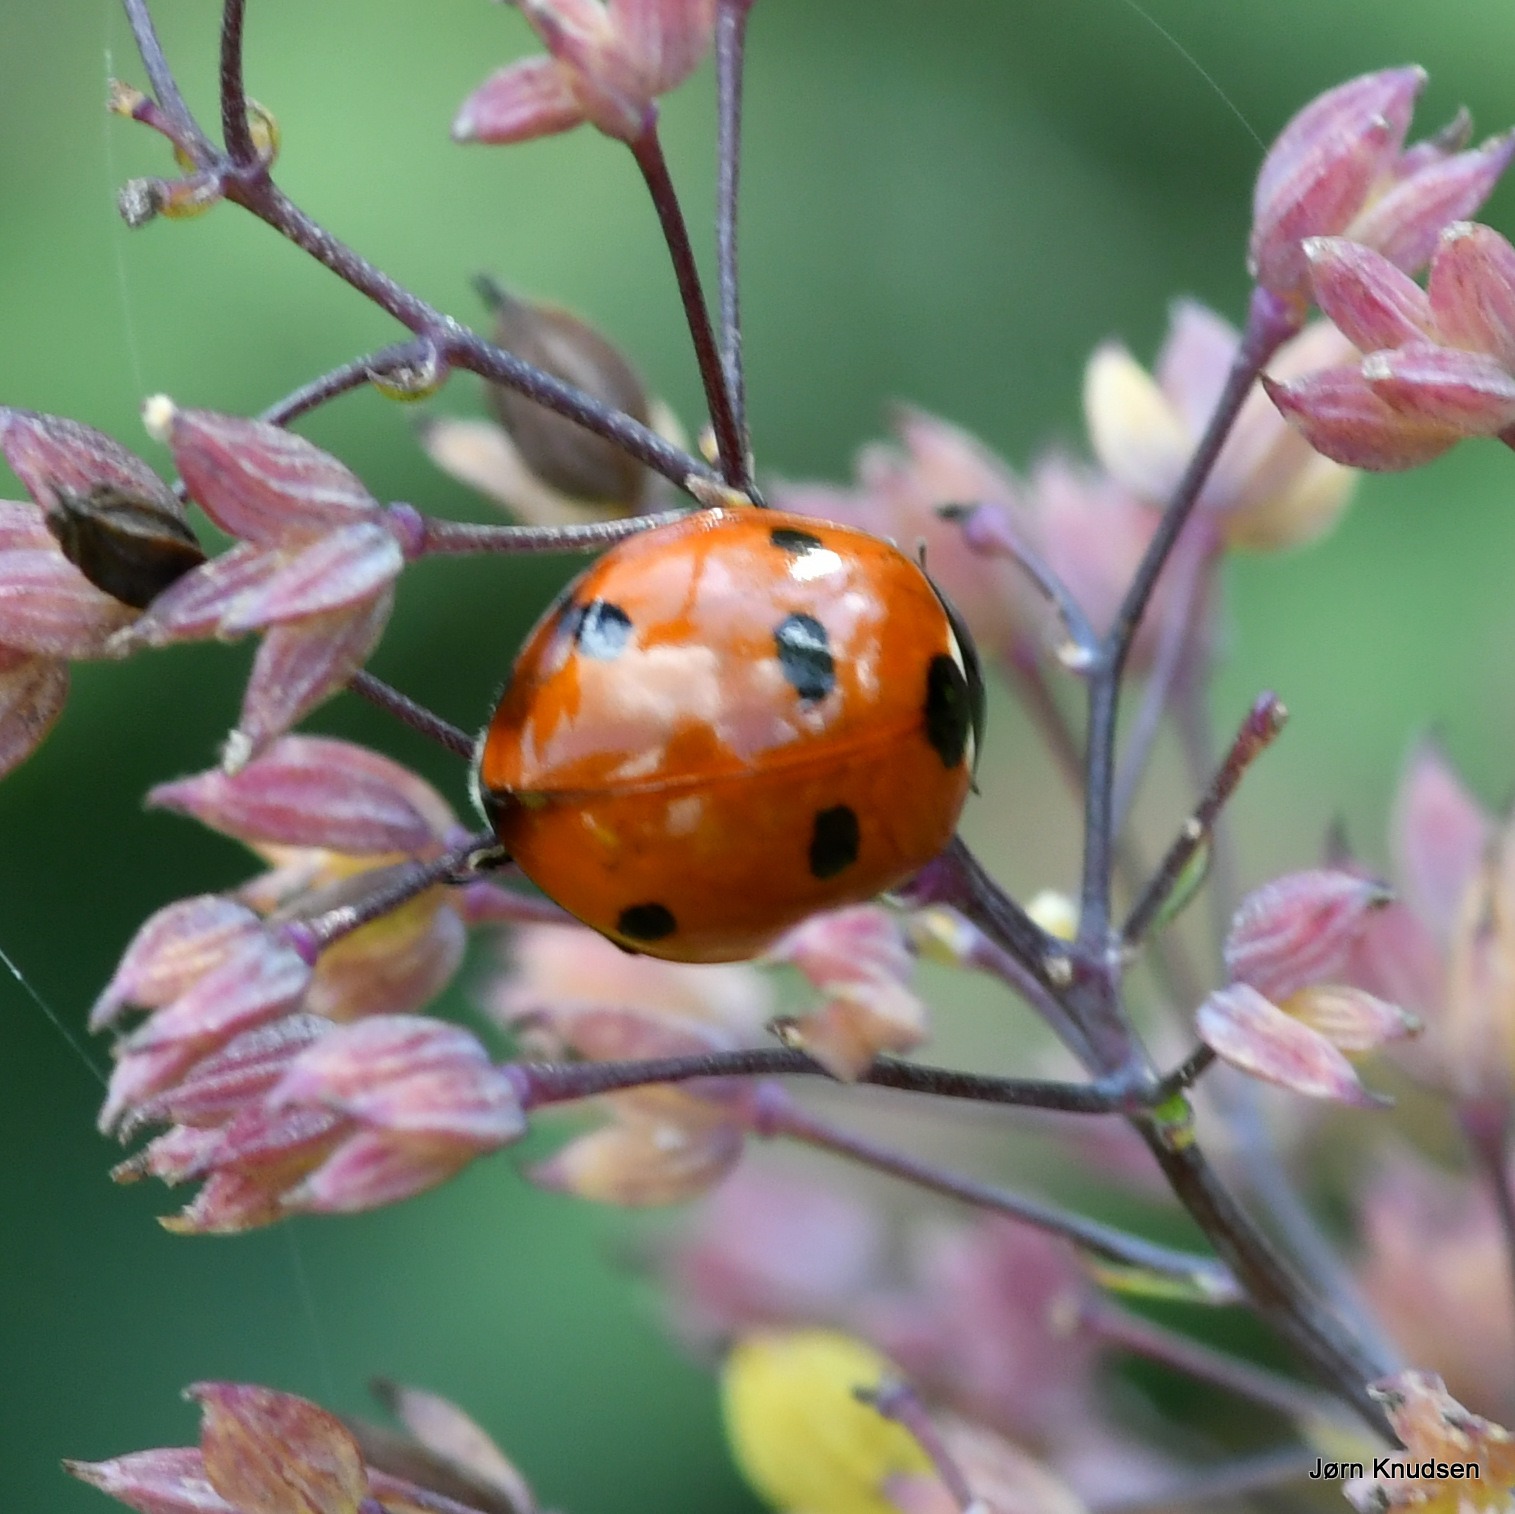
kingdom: Animalia
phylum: Arthropoda
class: Insecta
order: Coleoptera
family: Coccinellidae
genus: Coccinella
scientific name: Coccinella septempunctata
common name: Syvplettet mariehøne
